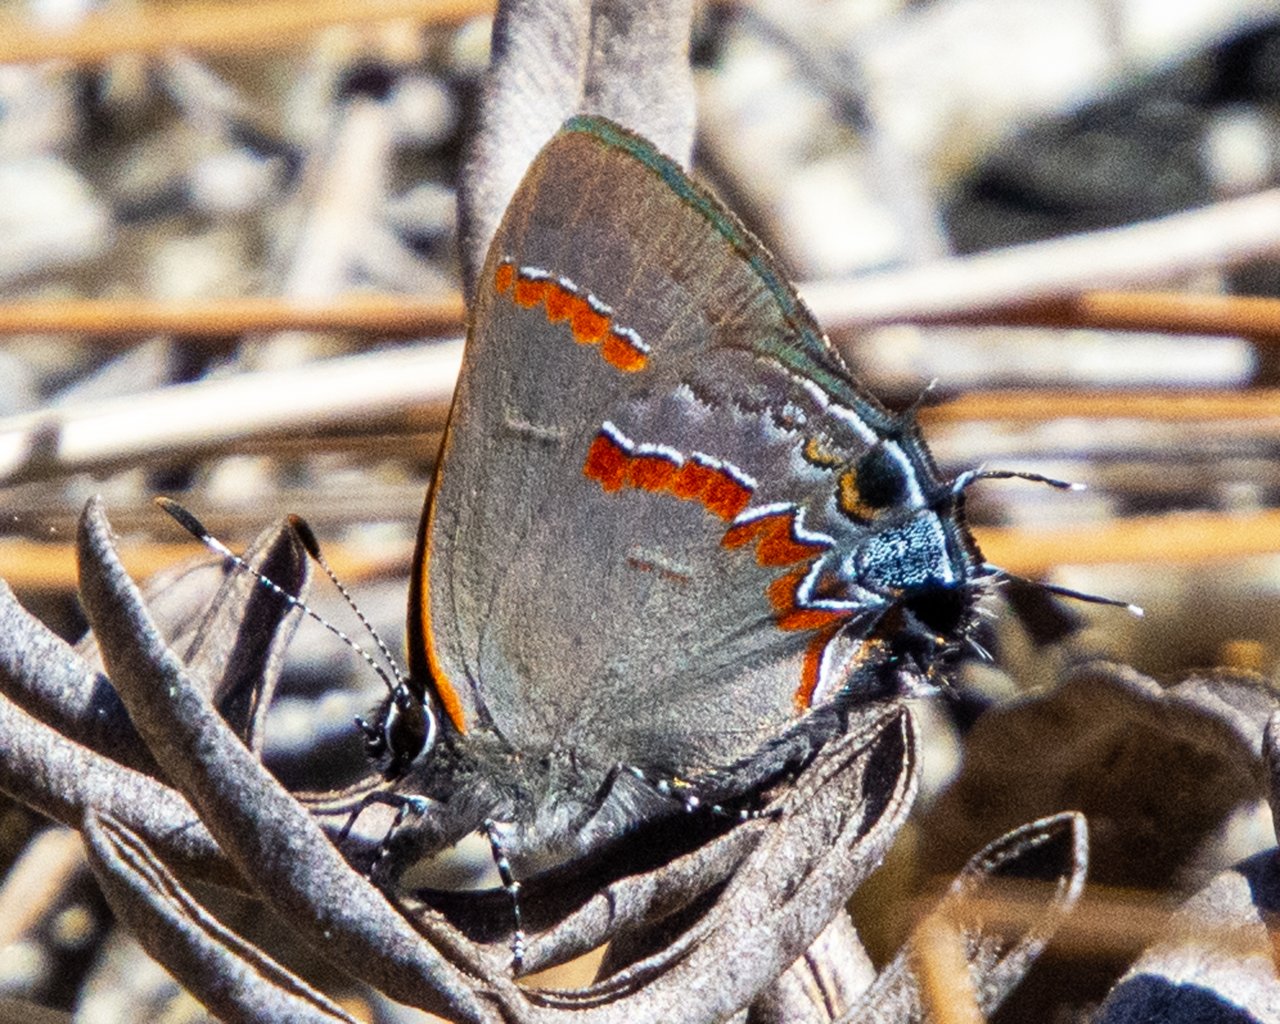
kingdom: Animalia
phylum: Arthropoda
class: Insecta
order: Lepidoptera
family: Lycaenidae
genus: Calycopis
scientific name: Calycopis cecrops
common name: Red-banded Hairstreak
